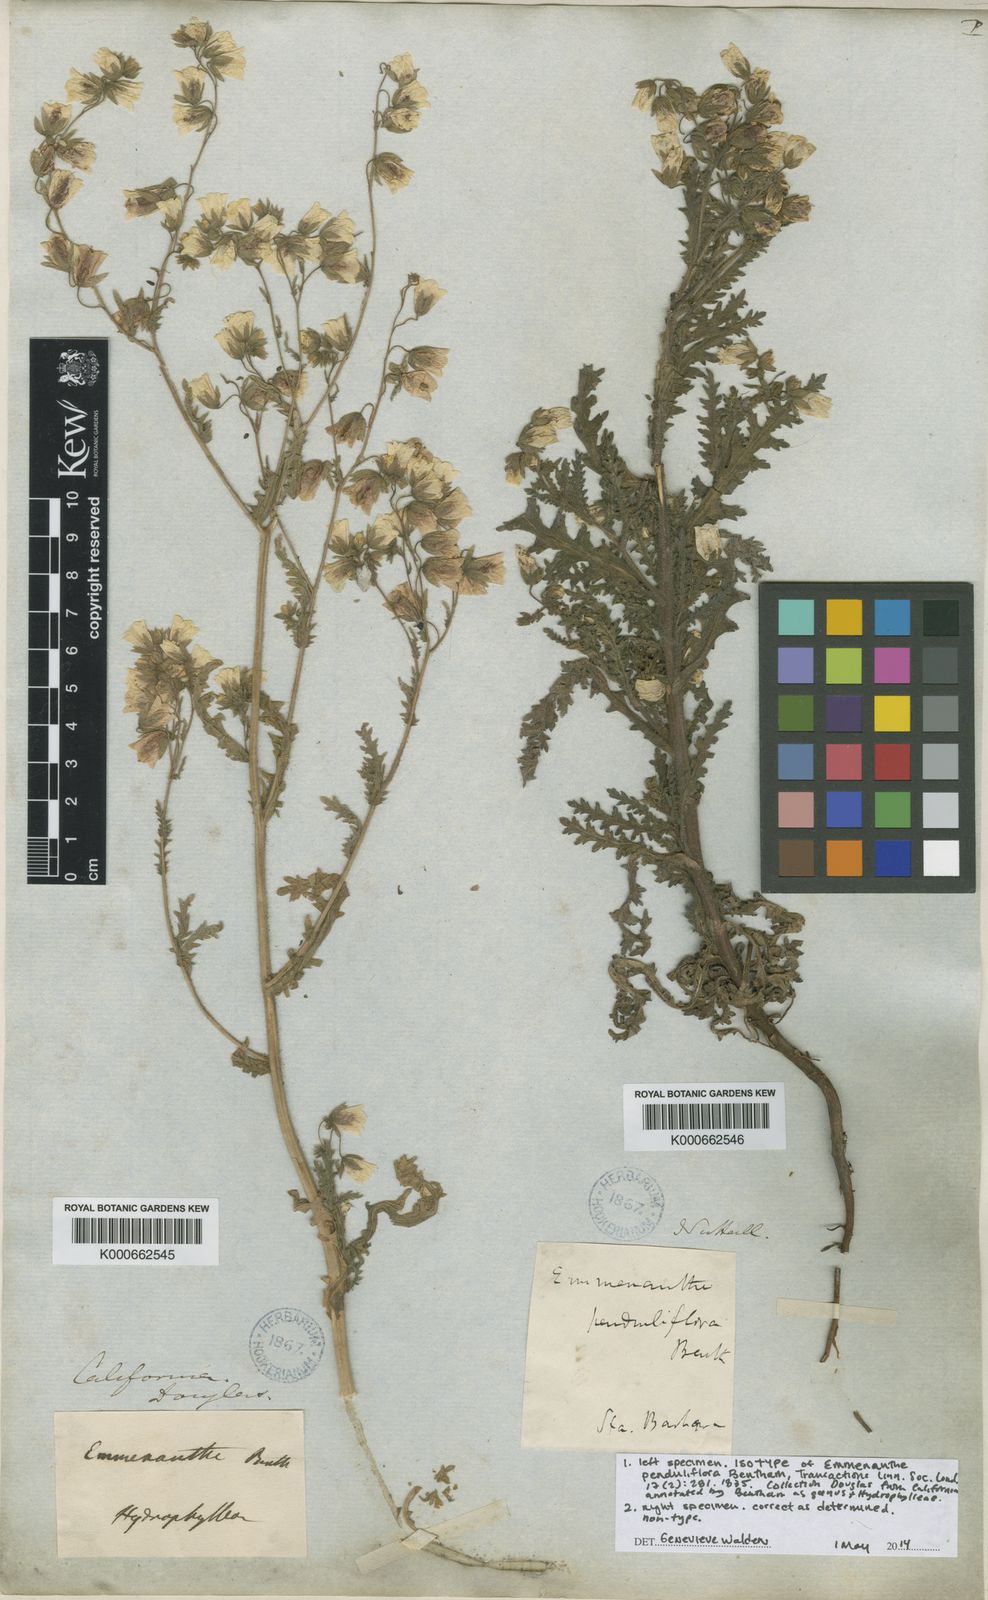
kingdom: Plantae
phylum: Tracheophyta
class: Magnoliopsida
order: Boraginales
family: Hydrophyllaceae
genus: Emmenanthe
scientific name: Emmenanthe penduliflora
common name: Whispering-bells
